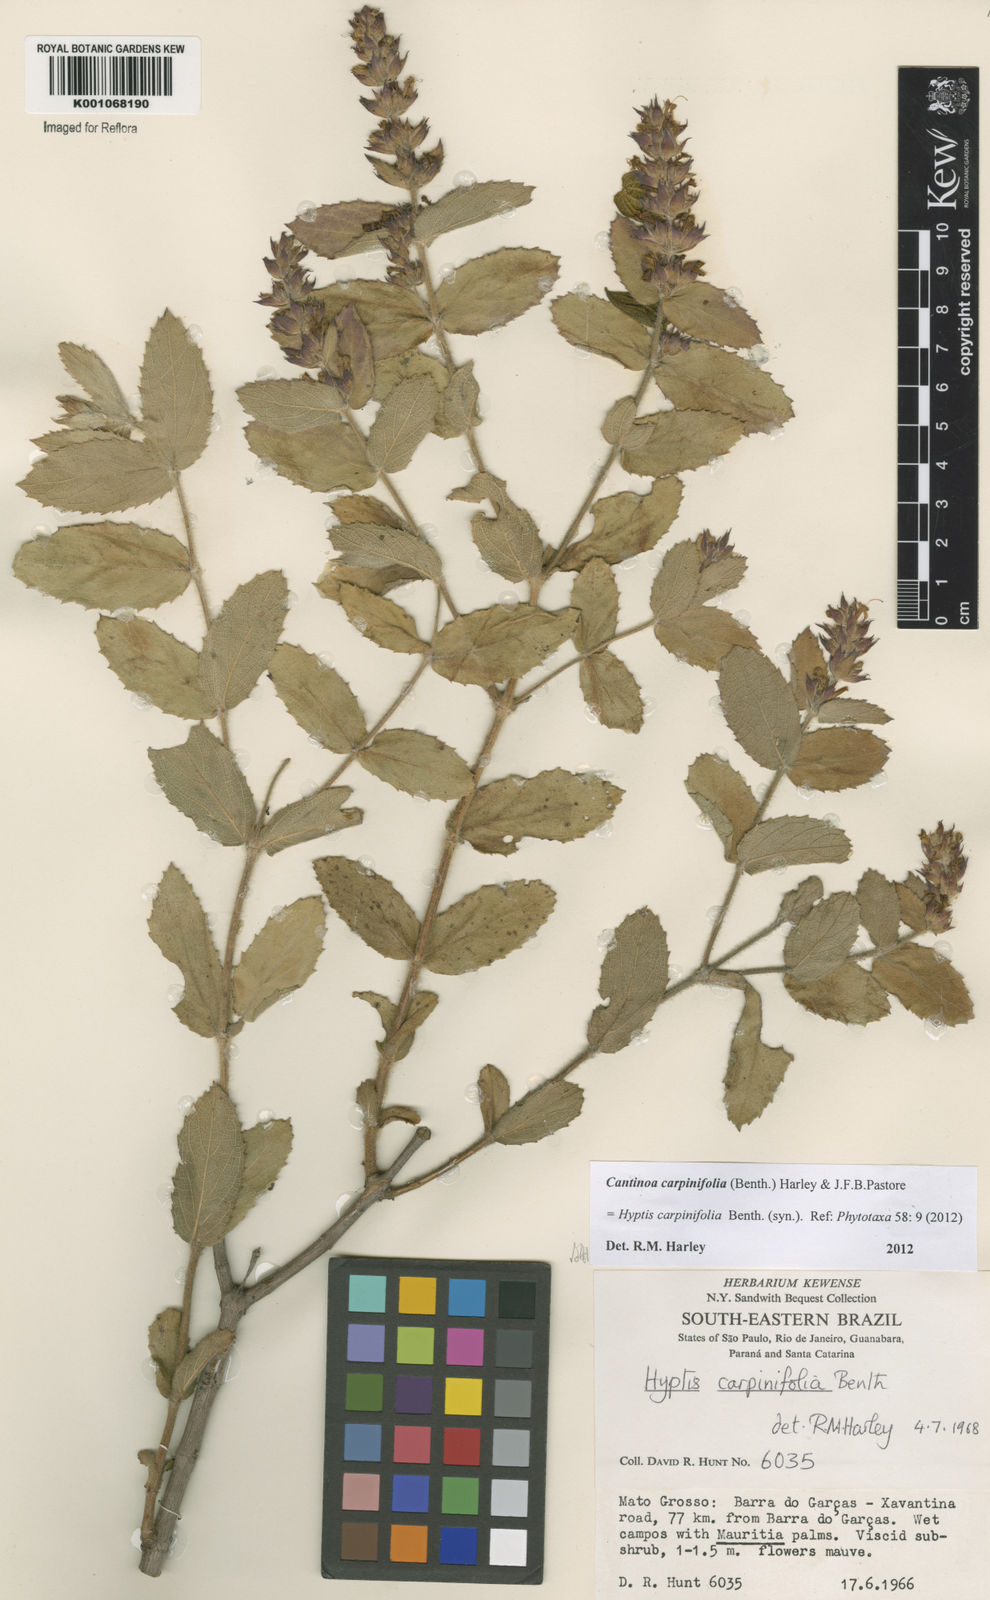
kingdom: Plantae
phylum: Tracheophyta
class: Magnoliopsida
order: Lamiales
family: Lamiaceae
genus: Cantinoa
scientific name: Cantinoa carpinifolia
